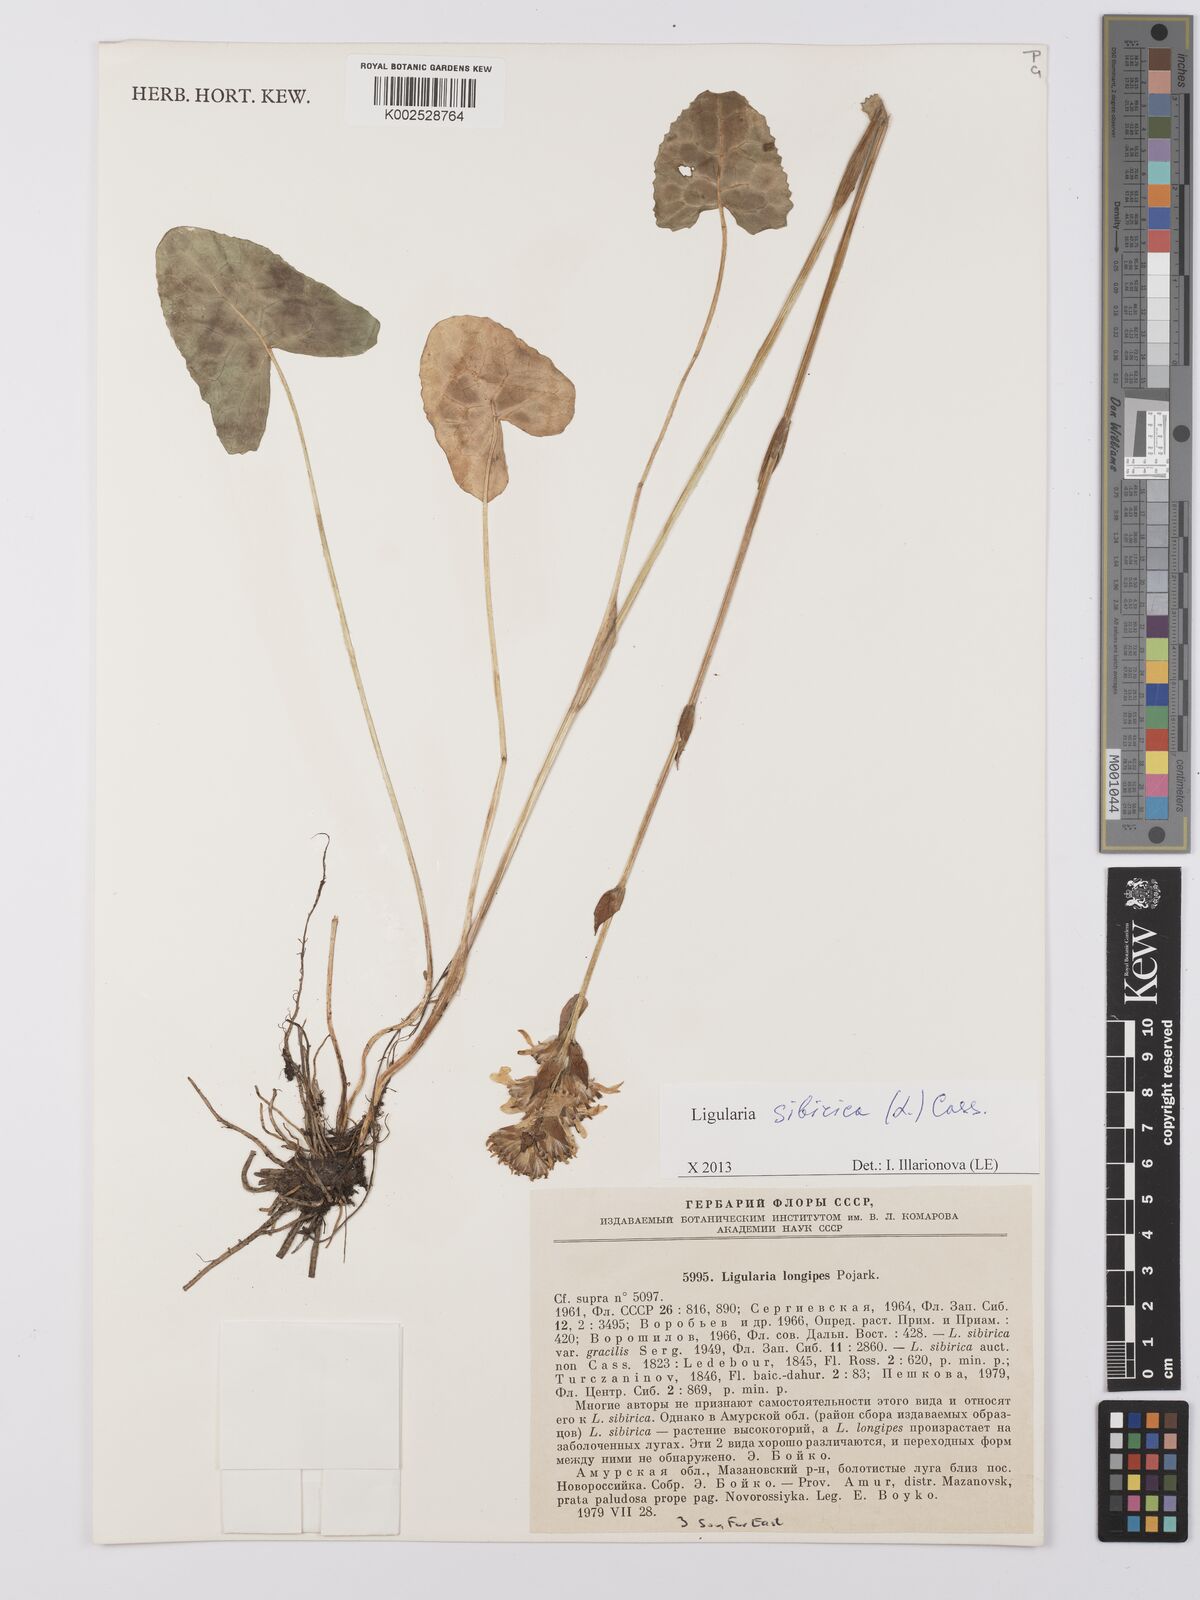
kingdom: Plantae
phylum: Tracheophyta
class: Magnoliopsida
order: Asterales
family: Asteraceae
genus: Ligularia
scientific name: Ligularia sibirica
